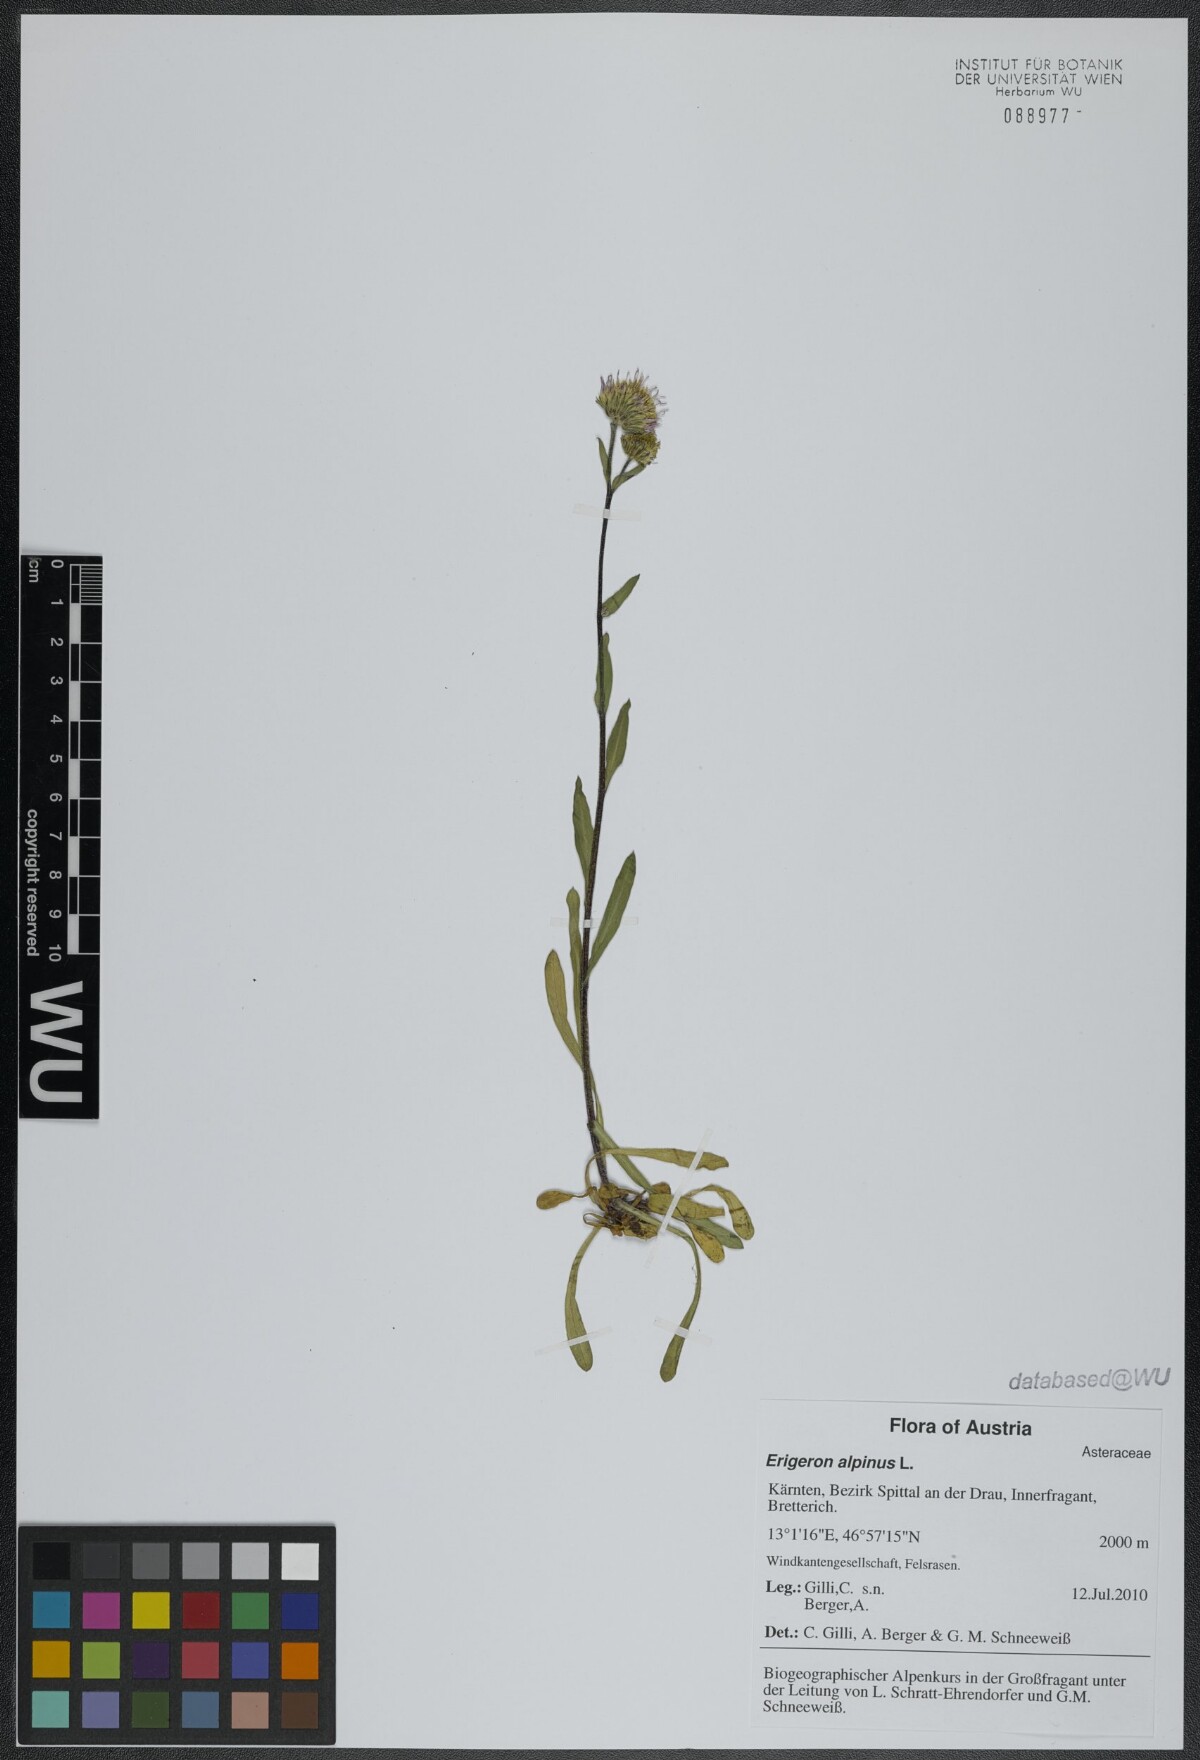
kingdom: Plantae
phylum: Tracheophyta
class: Magnoliopsida
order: Asterales
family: Asteraceae
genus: Erigeron
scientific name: Erigeron alpinus
